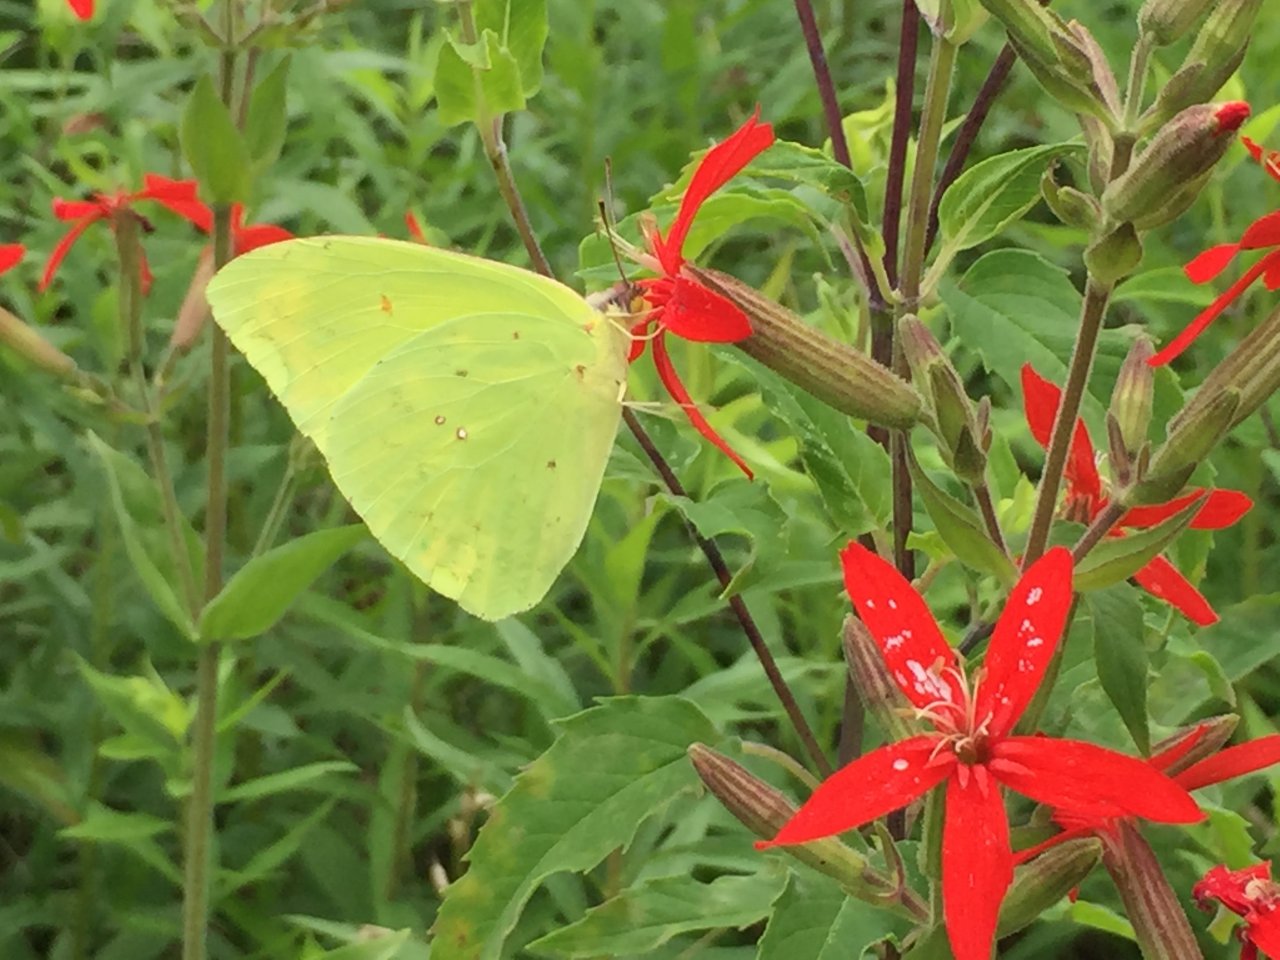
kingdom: Animalia
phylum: Arthropoda
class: Insecta
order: Lepidoptera
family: Pieridae
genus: Phoebis
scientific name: Phoebis sennae
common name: Cloudless Sulphur
